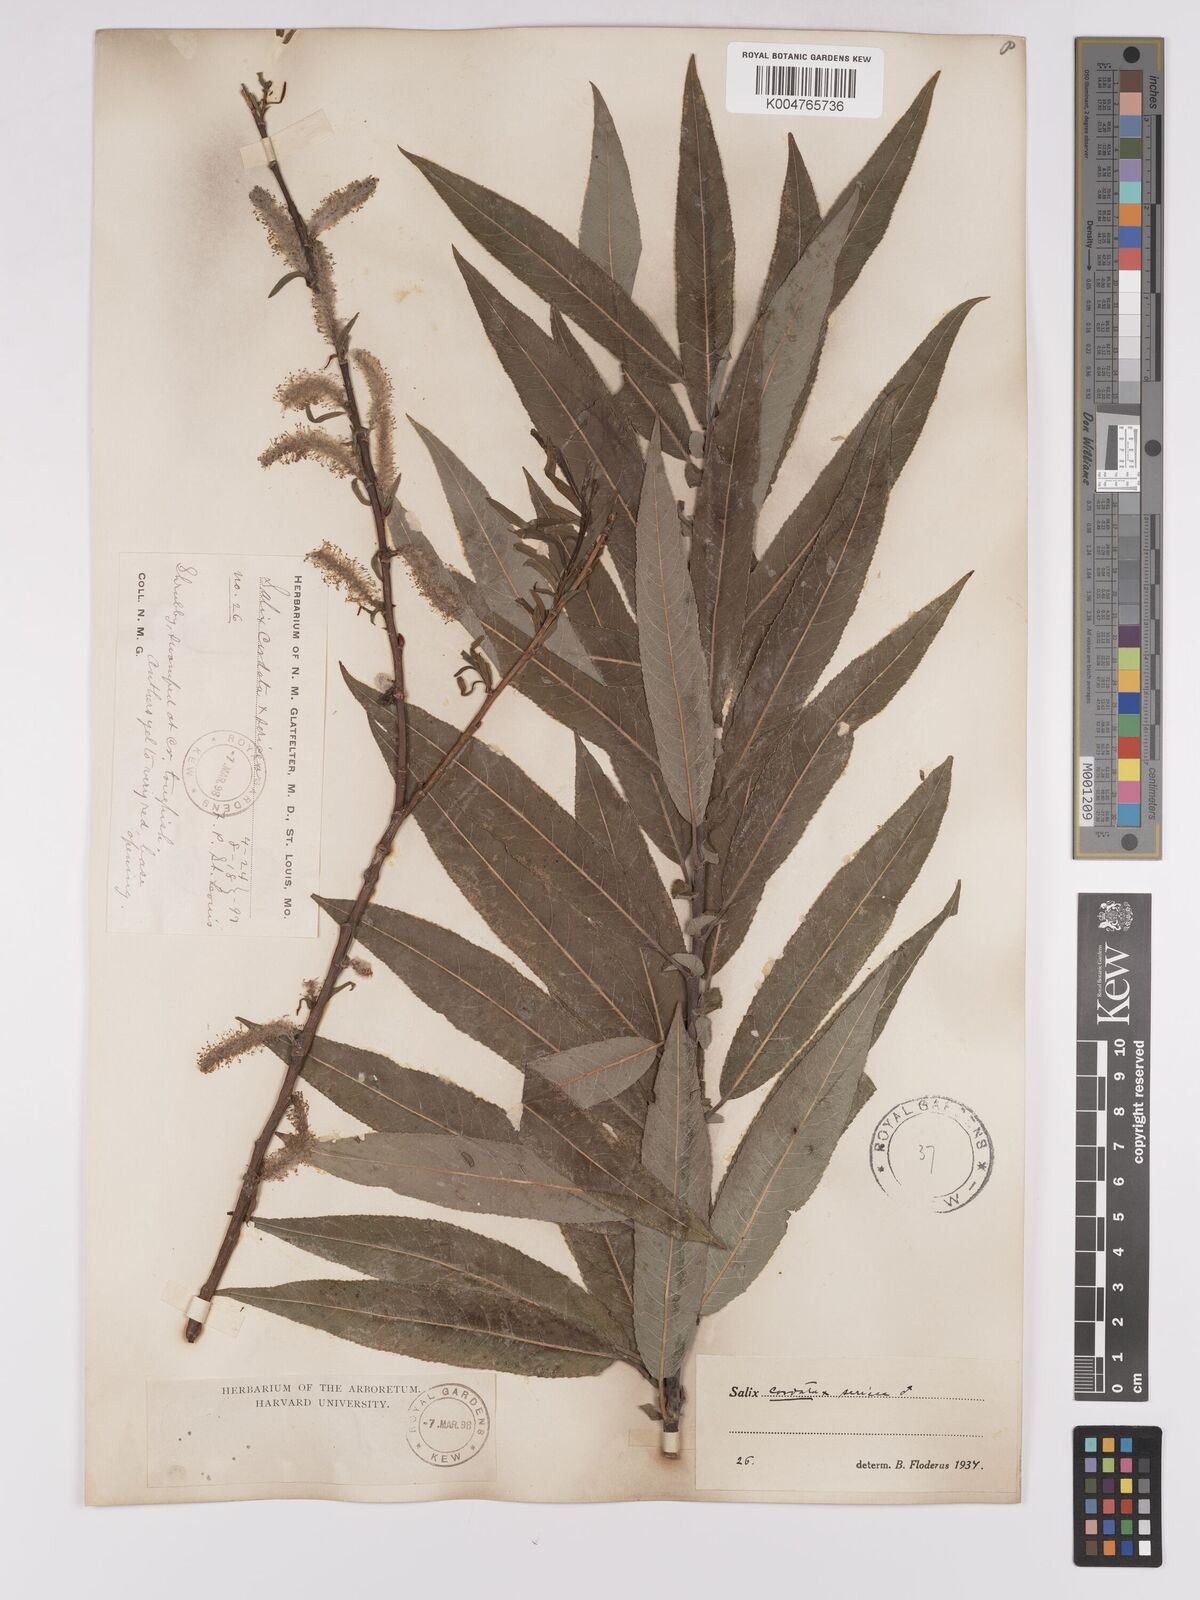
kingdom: Plantae
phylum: Tracheophyta
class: Magnoliopsida
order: Malpighiales
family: Salicaceae
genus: Salix
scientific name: Salix cordata
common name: Heart-leaf willow
